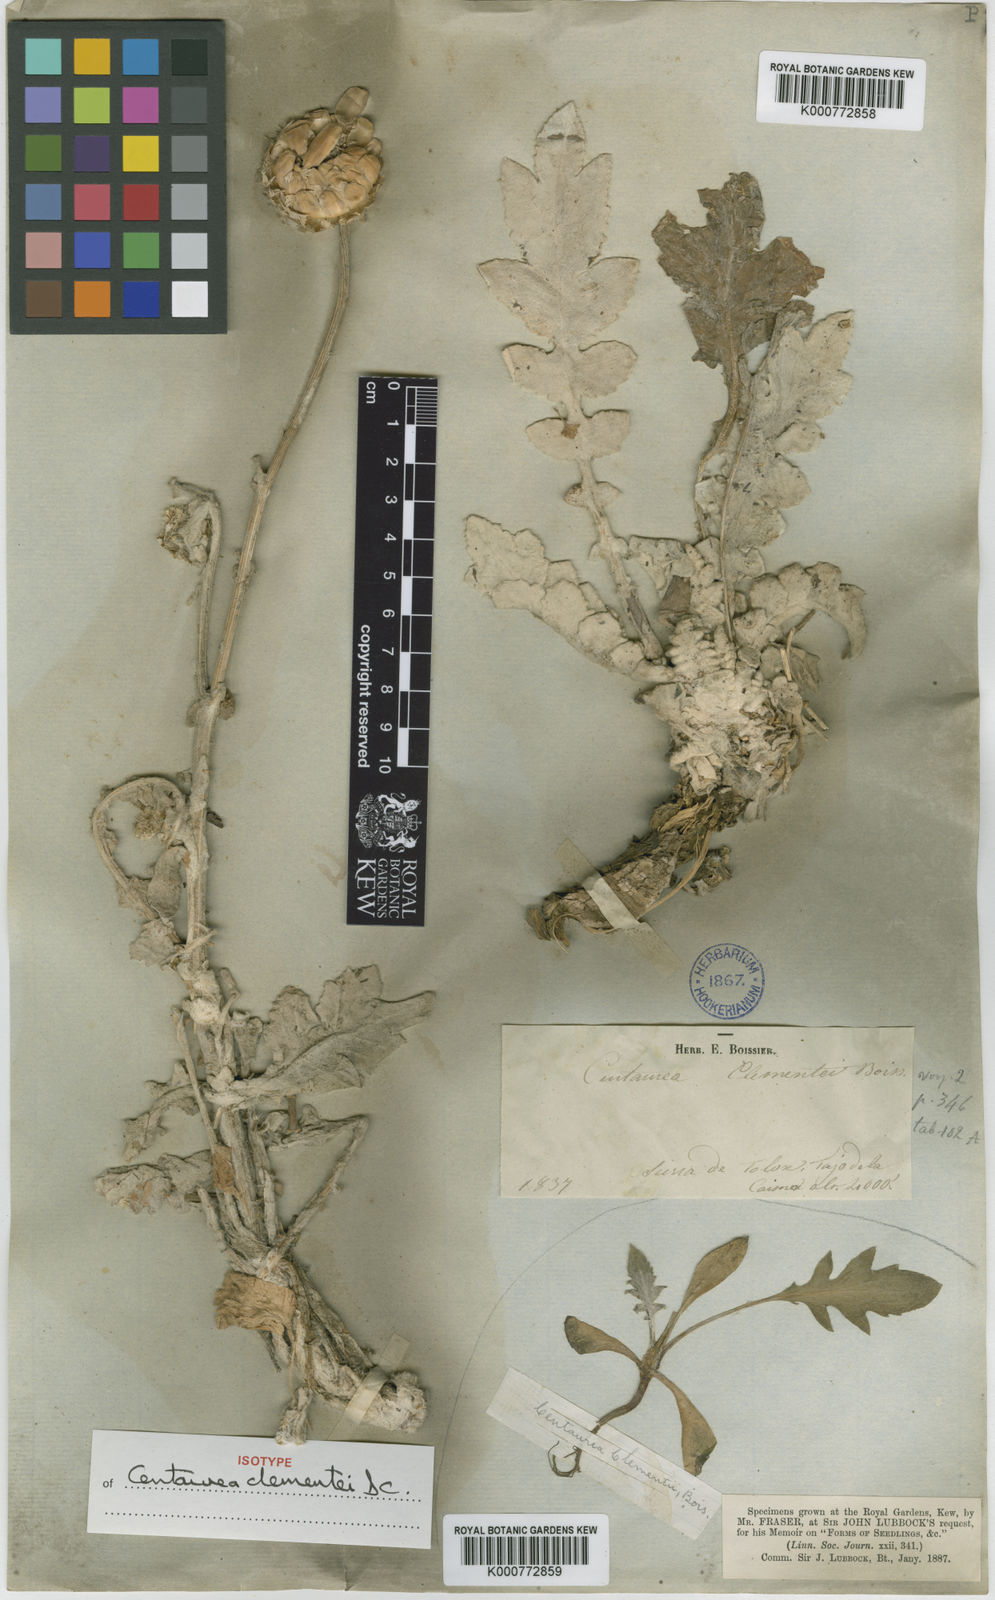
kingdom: Plantae
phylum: Tracheophyta
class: Magnoliopsida
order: Asterales
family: Asteraceae
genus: Centaurea
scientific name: Centaurea clementei
